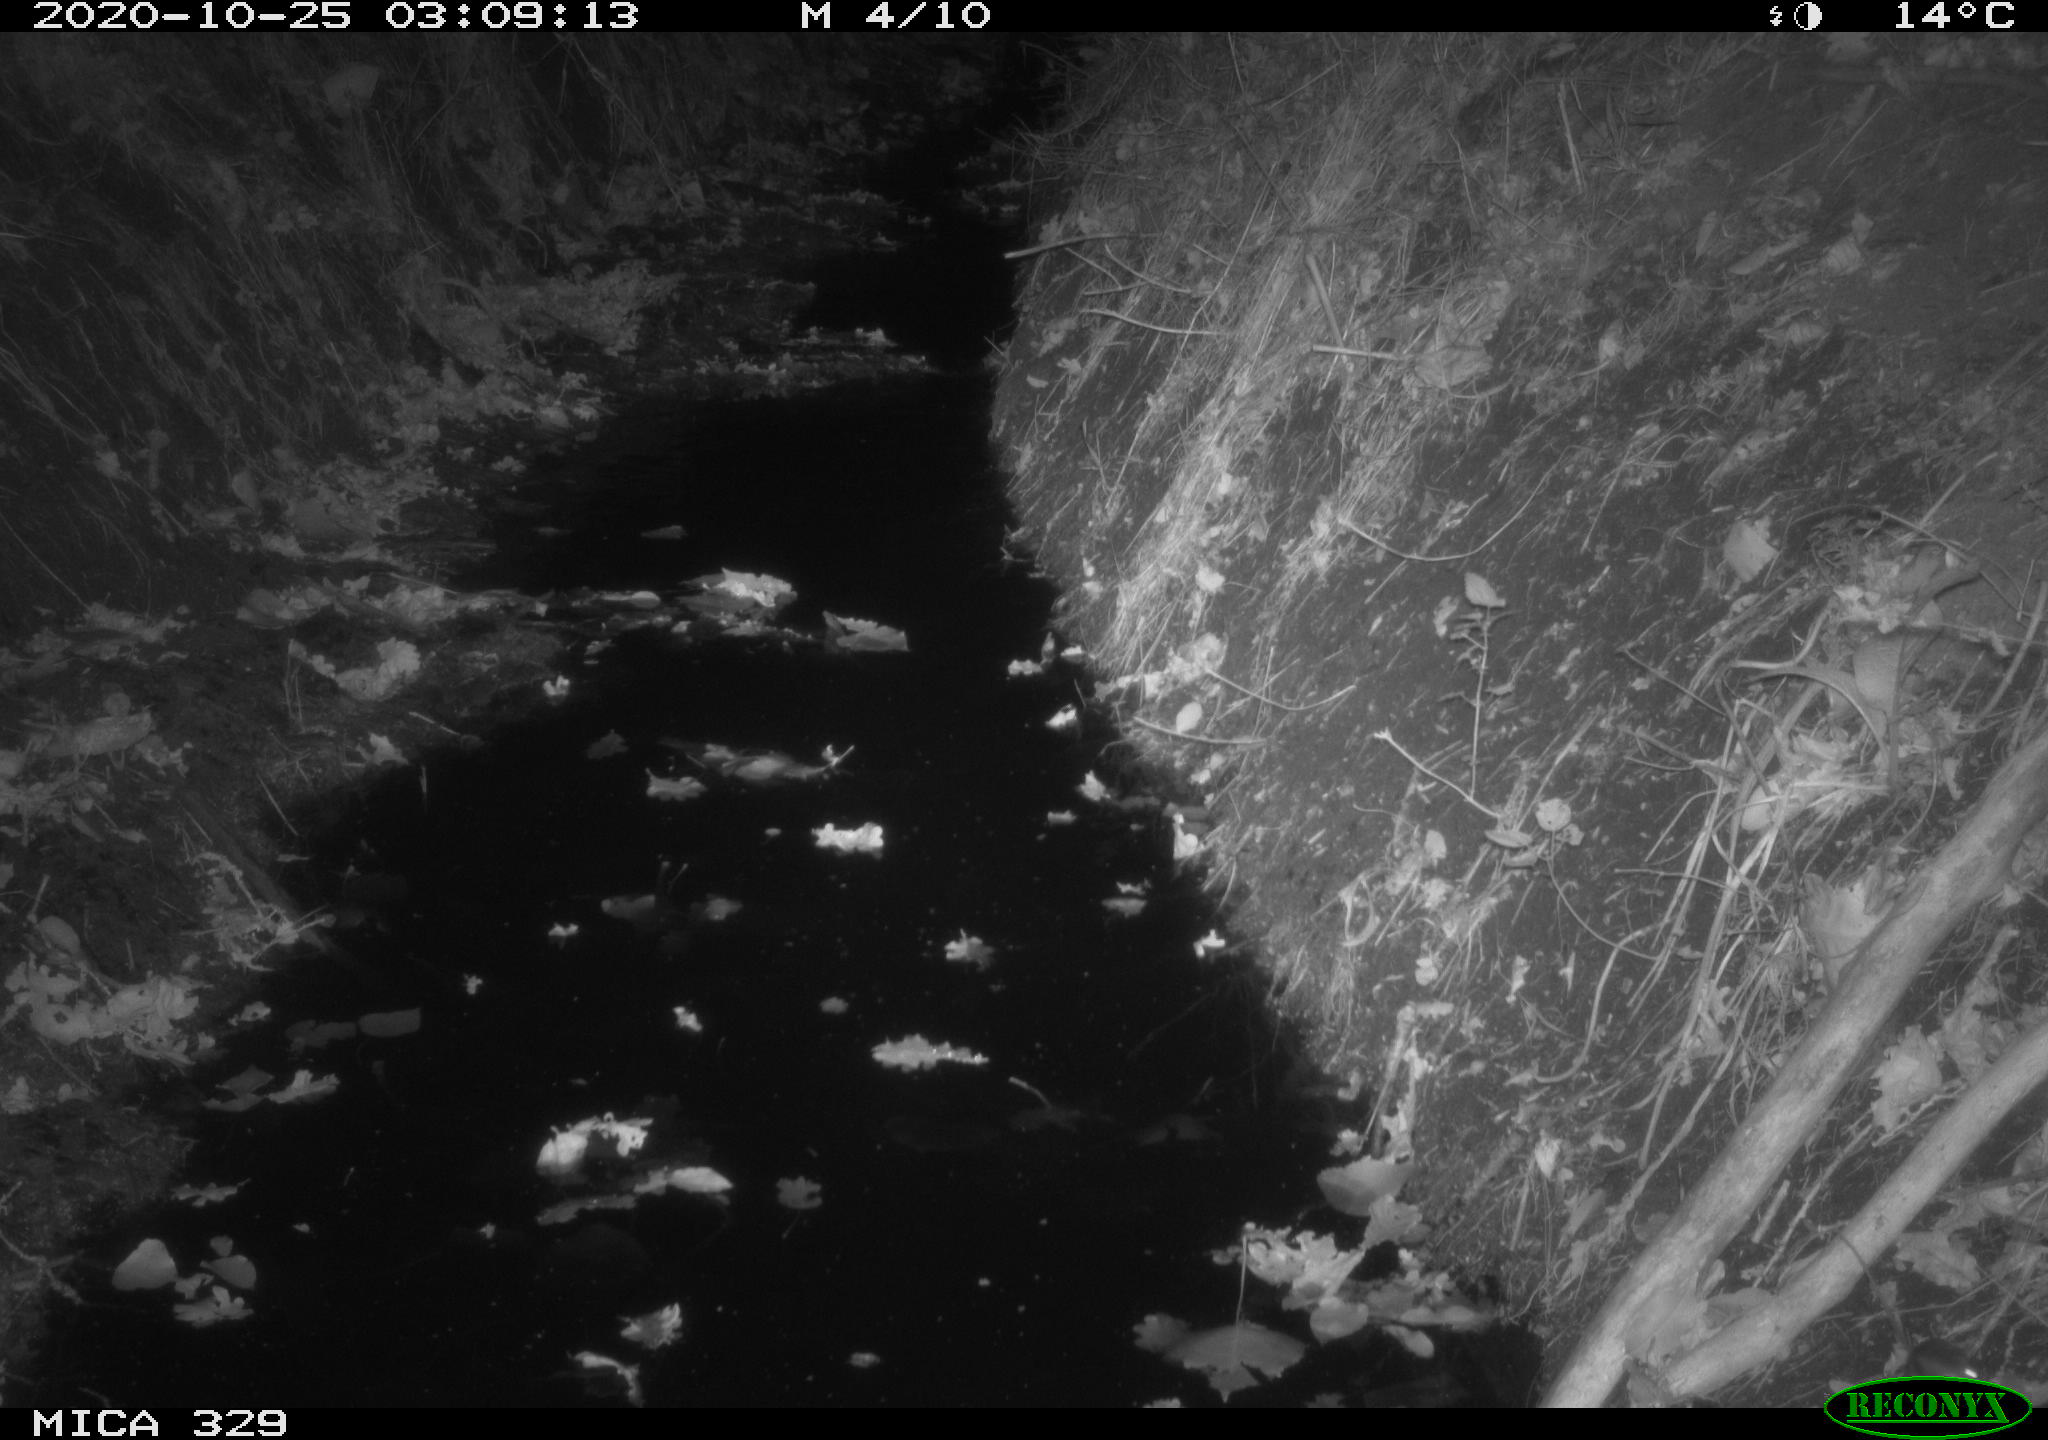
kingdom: Animalia
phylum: Chordata
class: Mammalia
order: Rodentia
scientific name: Rodentia
